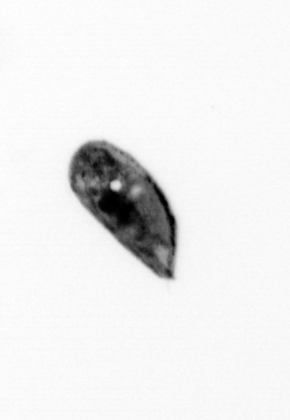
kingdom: Animalia
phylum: Arthropoda
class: Maxillopoda
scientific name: Maxillopoda
